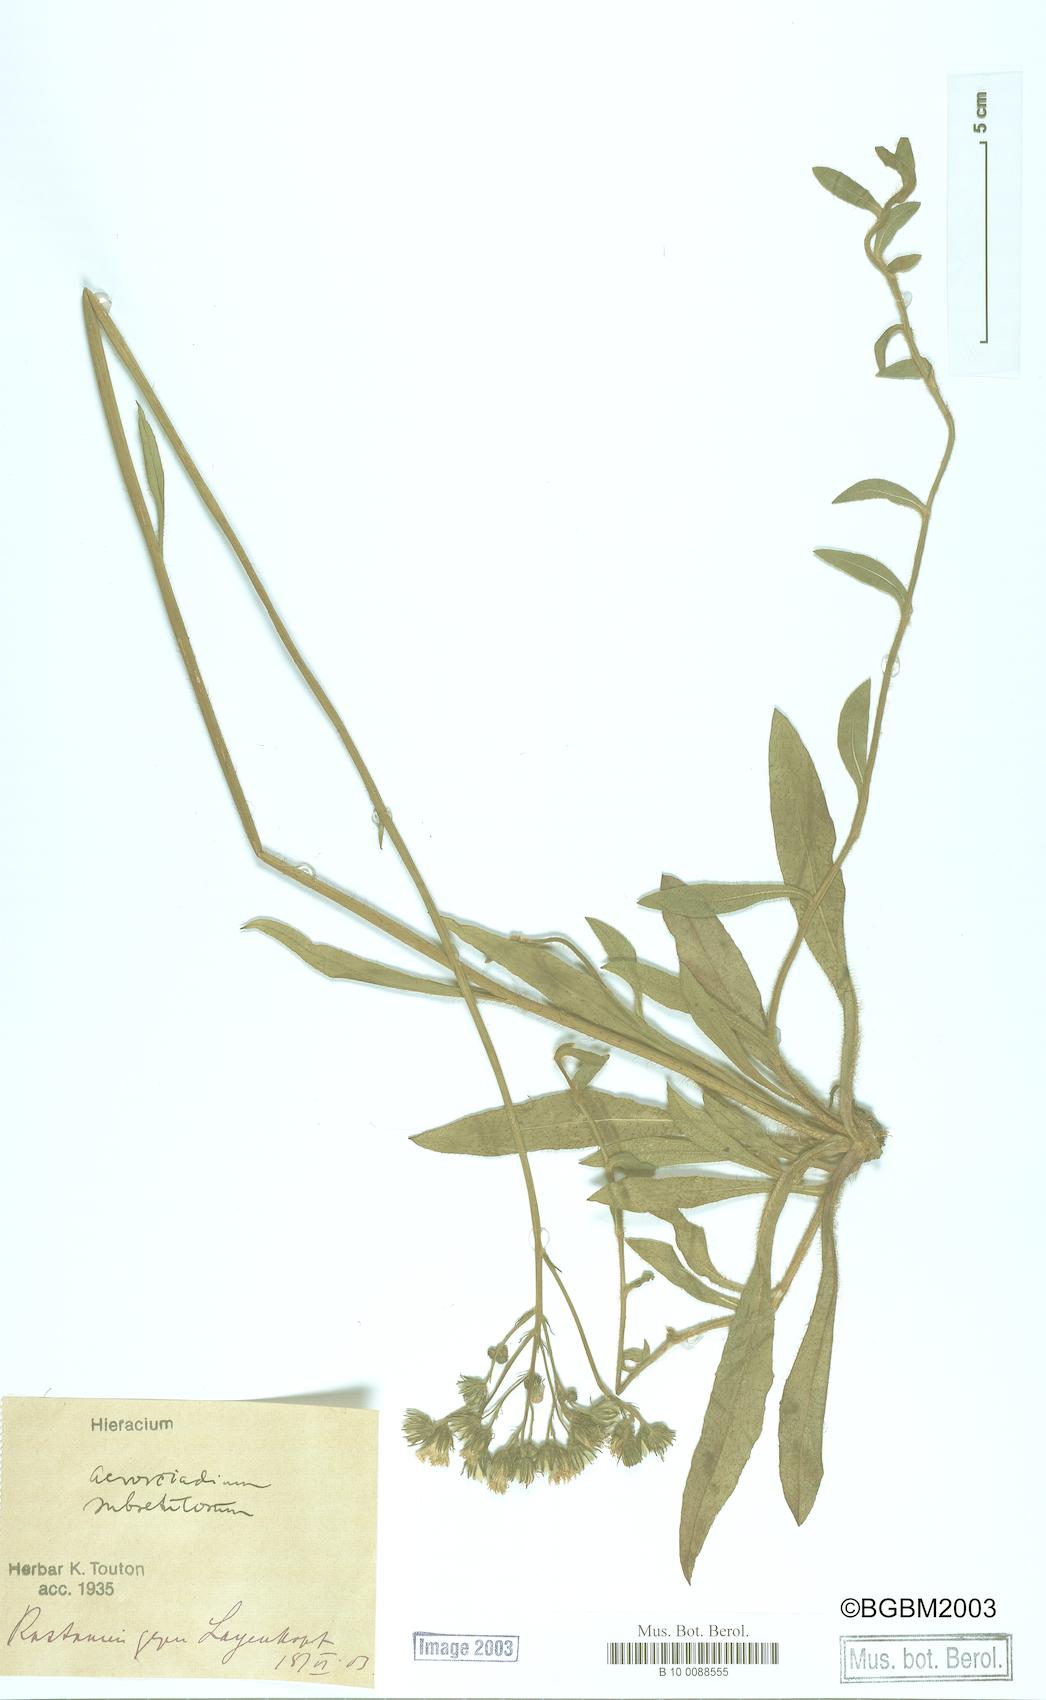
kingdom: Plantae
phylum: Tracheophyta
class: Magnoliopsida
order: Asterales
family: Asteraceae
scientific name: Asteraceae
